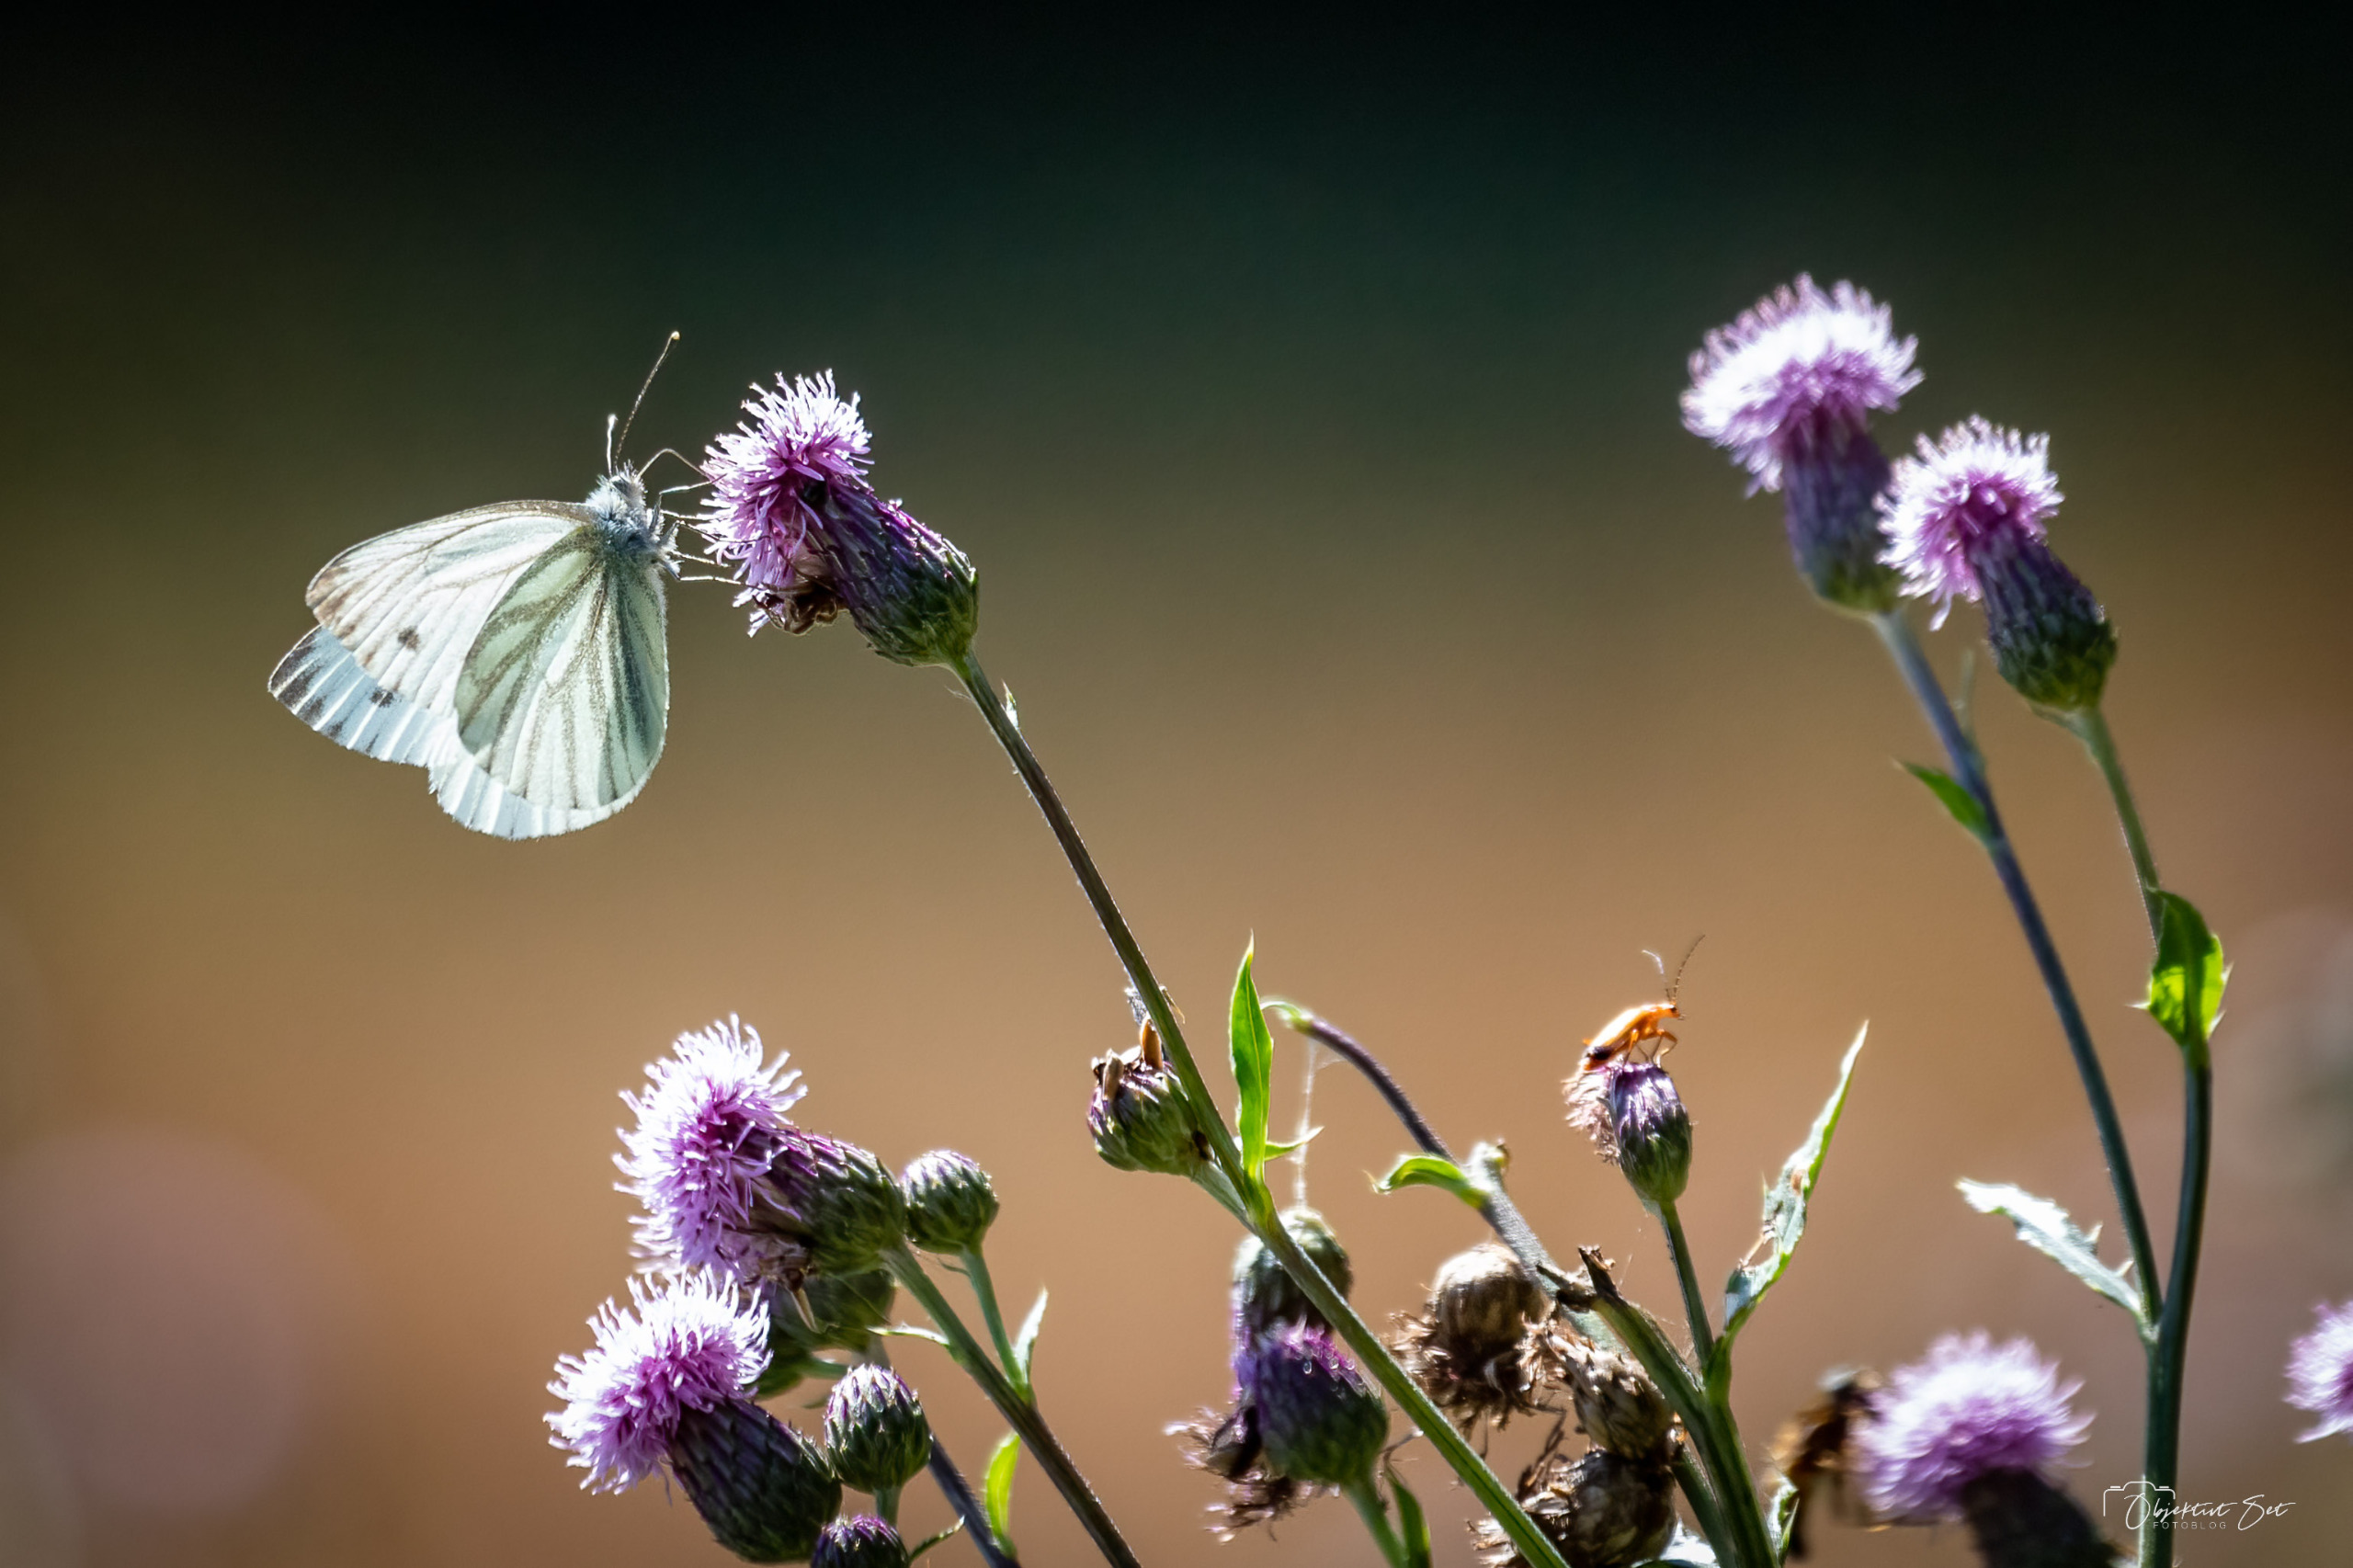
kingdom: Animalia
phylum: Arthropoda
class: Insecta
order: Lepidoptera
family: Pieridae
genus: Pieris
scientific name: Pieris napi
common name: Grønåret kålsommerfugl
